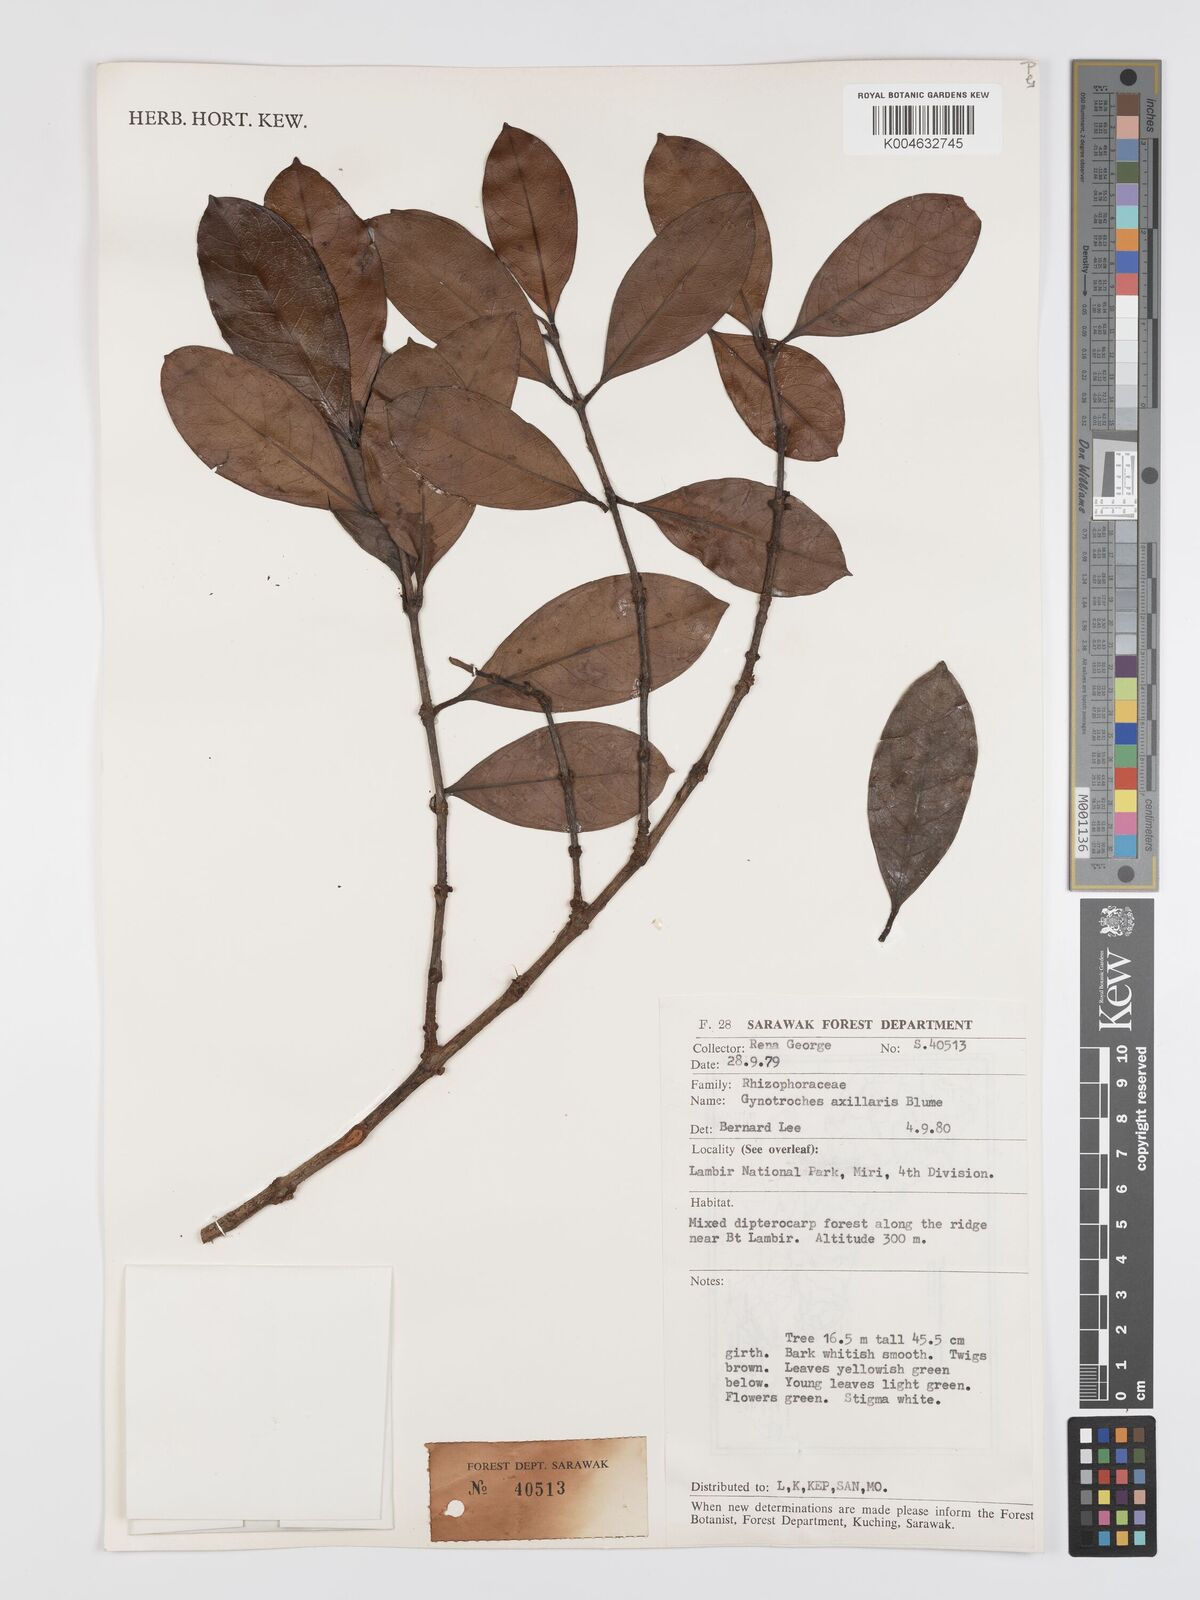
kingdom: Plantae
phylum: Tracheophyta
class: Magnoliopsida
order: Malpighiales
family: Rhizophoraceae
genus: Gynotroches
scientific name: Gynotroches axillaris
